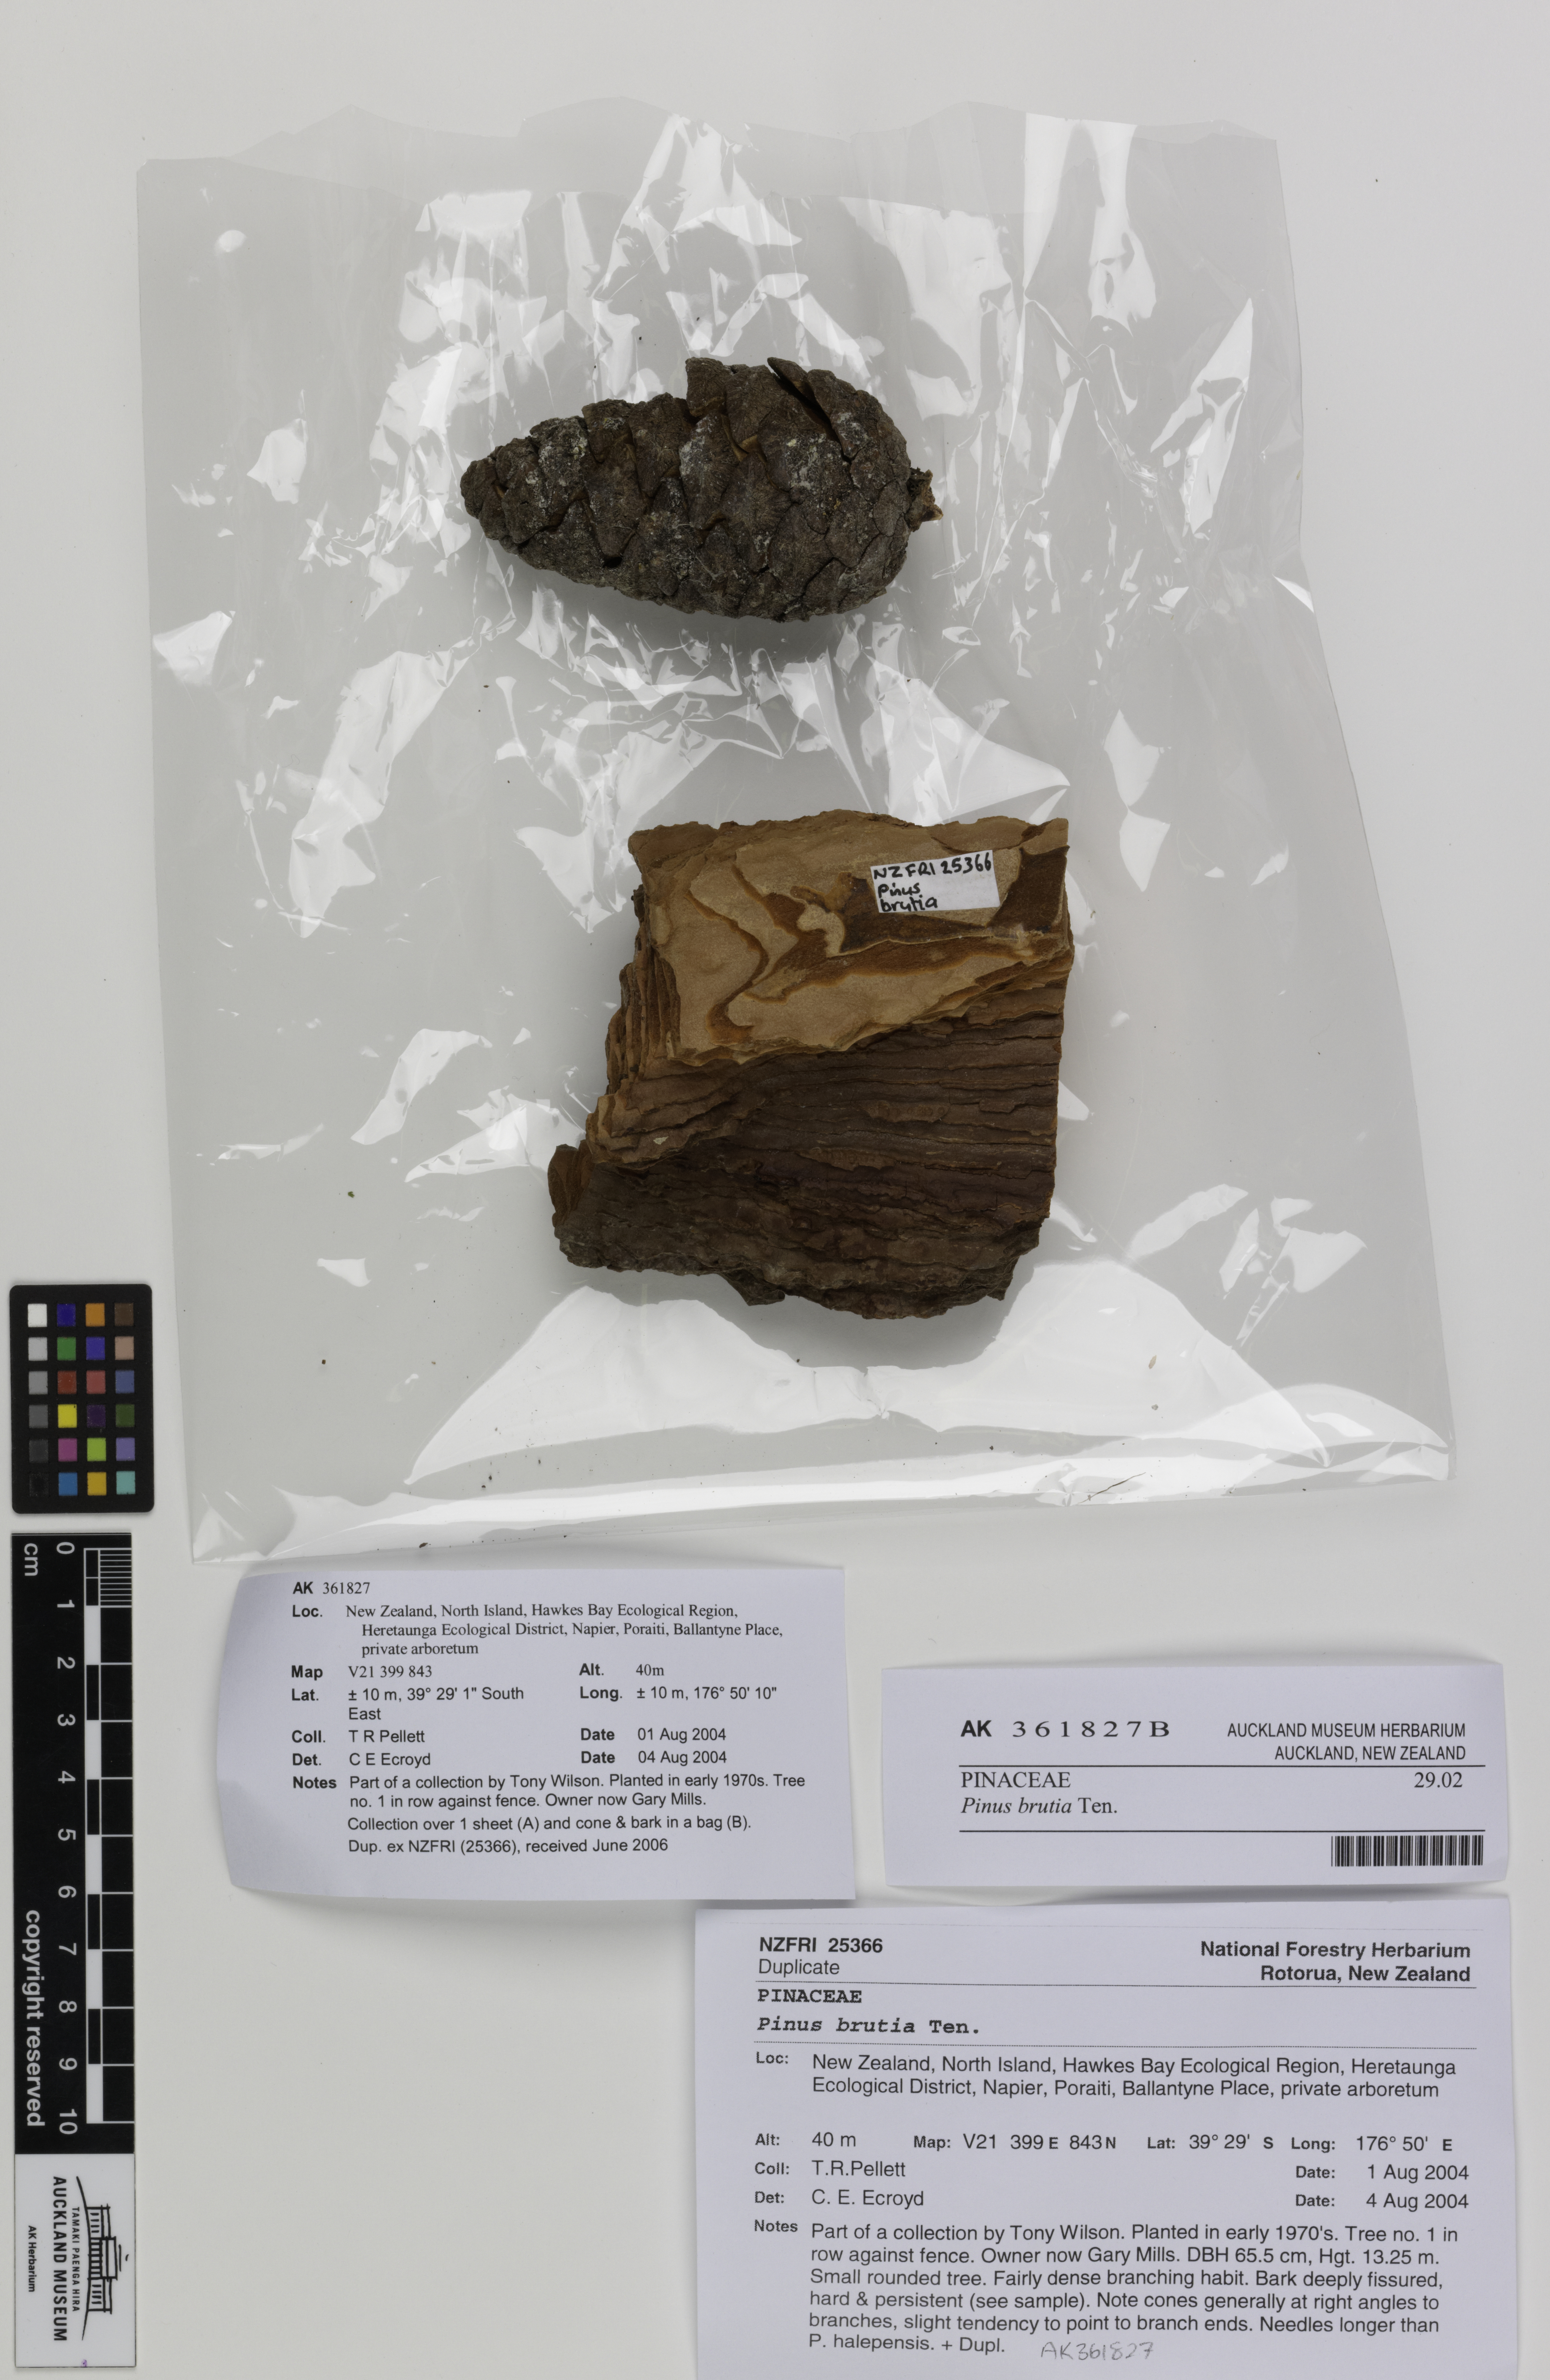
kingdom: Plantae
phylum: Tracheophyta
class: Pinopsida
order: Pinales
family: Pinaceae
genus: Pinus
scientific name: Pinus brutia
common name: Turkish pine
